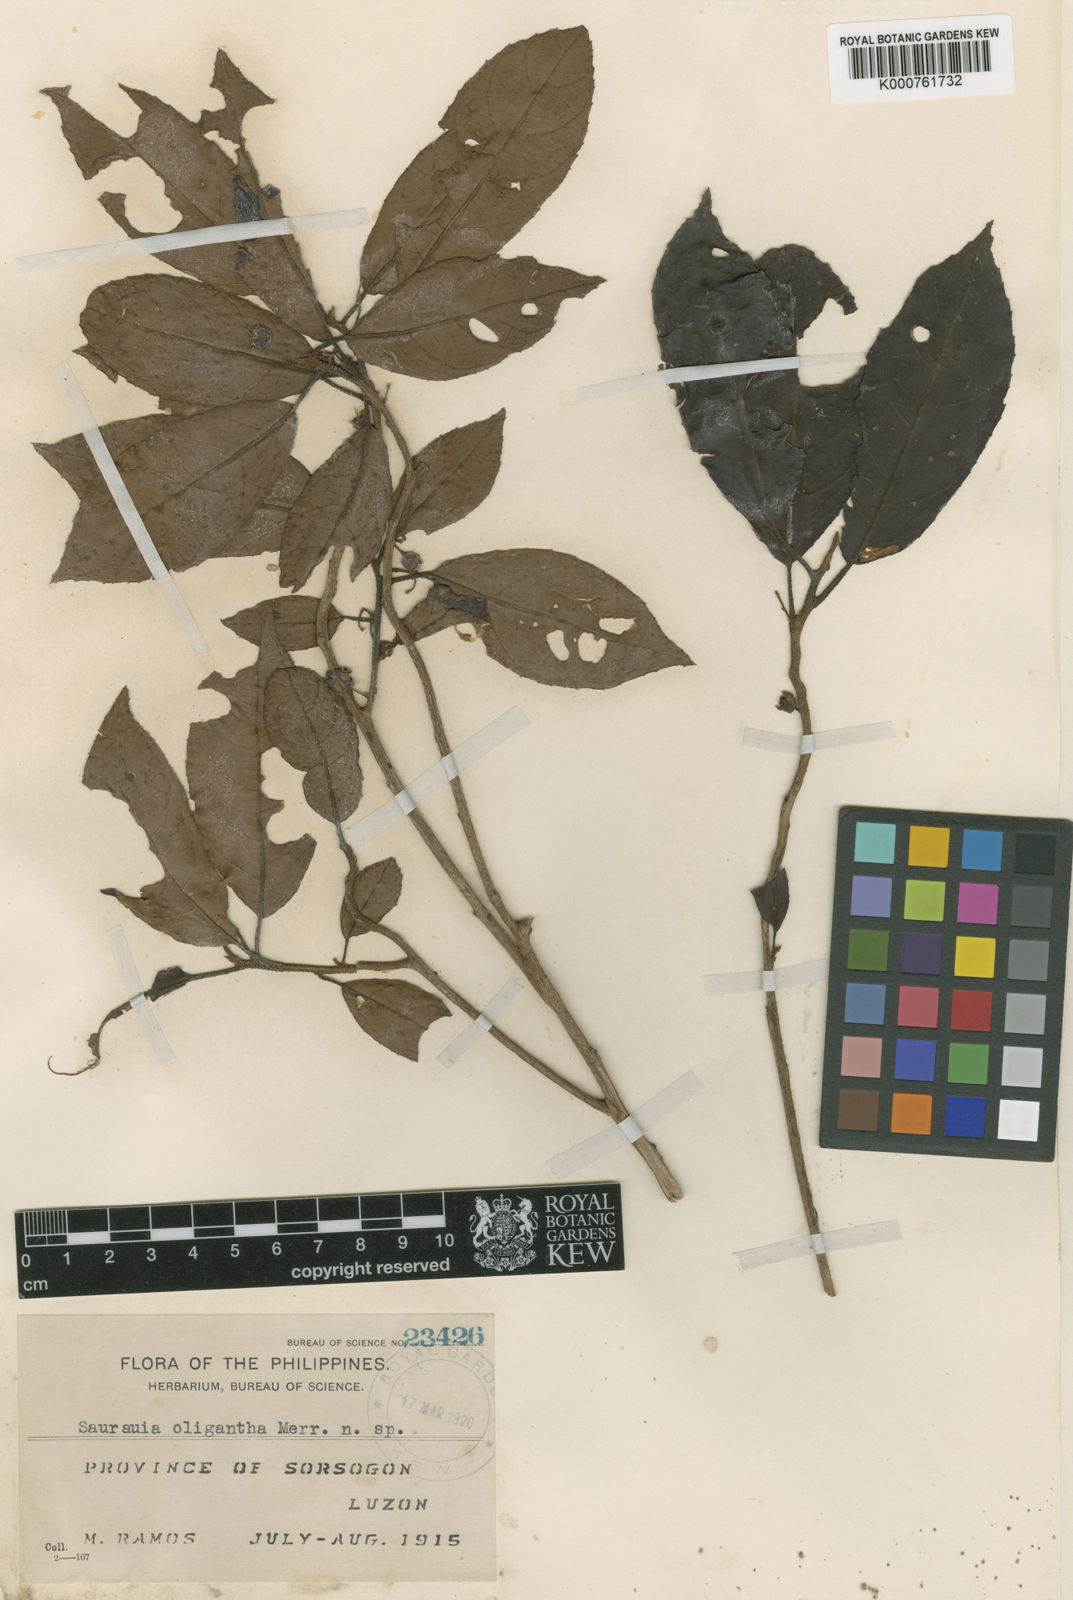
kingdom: Plantae
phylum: Tracheophyta
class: Magnoliopsida
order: Ericales
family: Actinidiaceae
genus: Saurauia
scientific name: Saurauia oligantha
